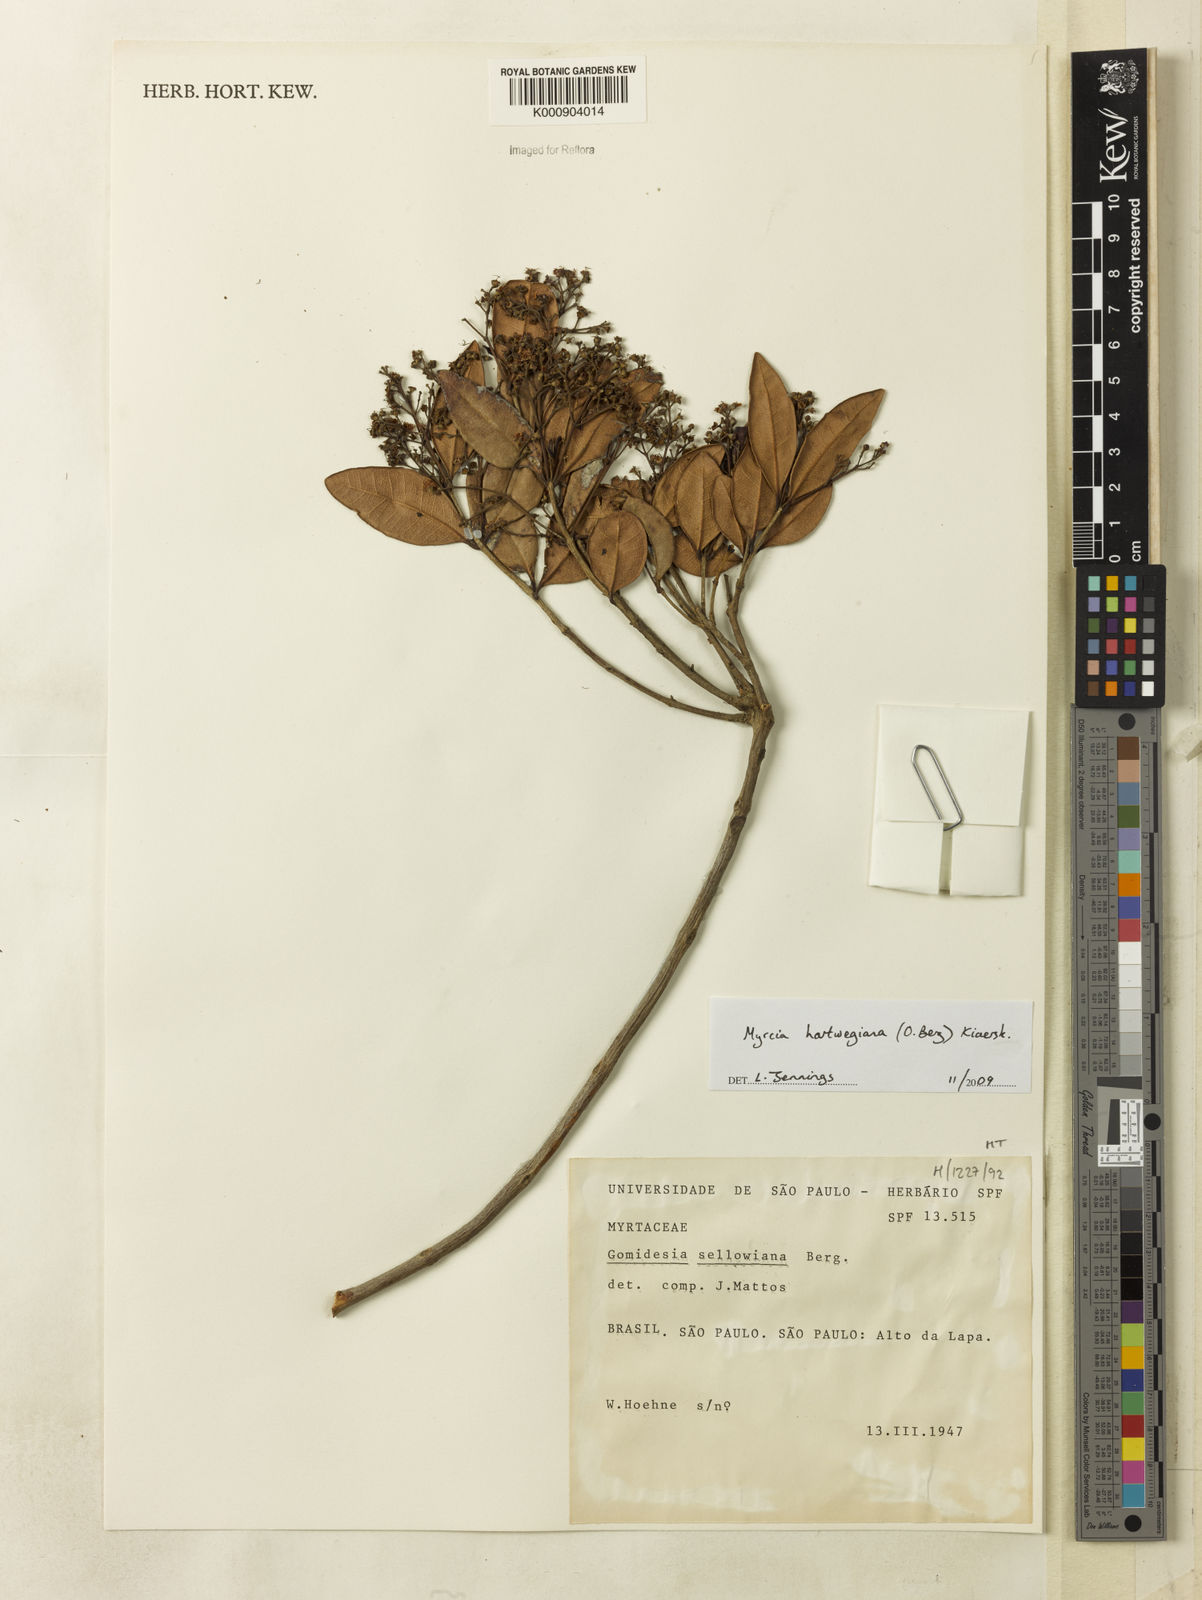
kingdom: Plantae
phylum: Tracheophyta
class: Magnoliopsida
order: Myrtales
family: Myrtaceae
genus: Myrcia
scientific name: Myrcia hartwegiana
